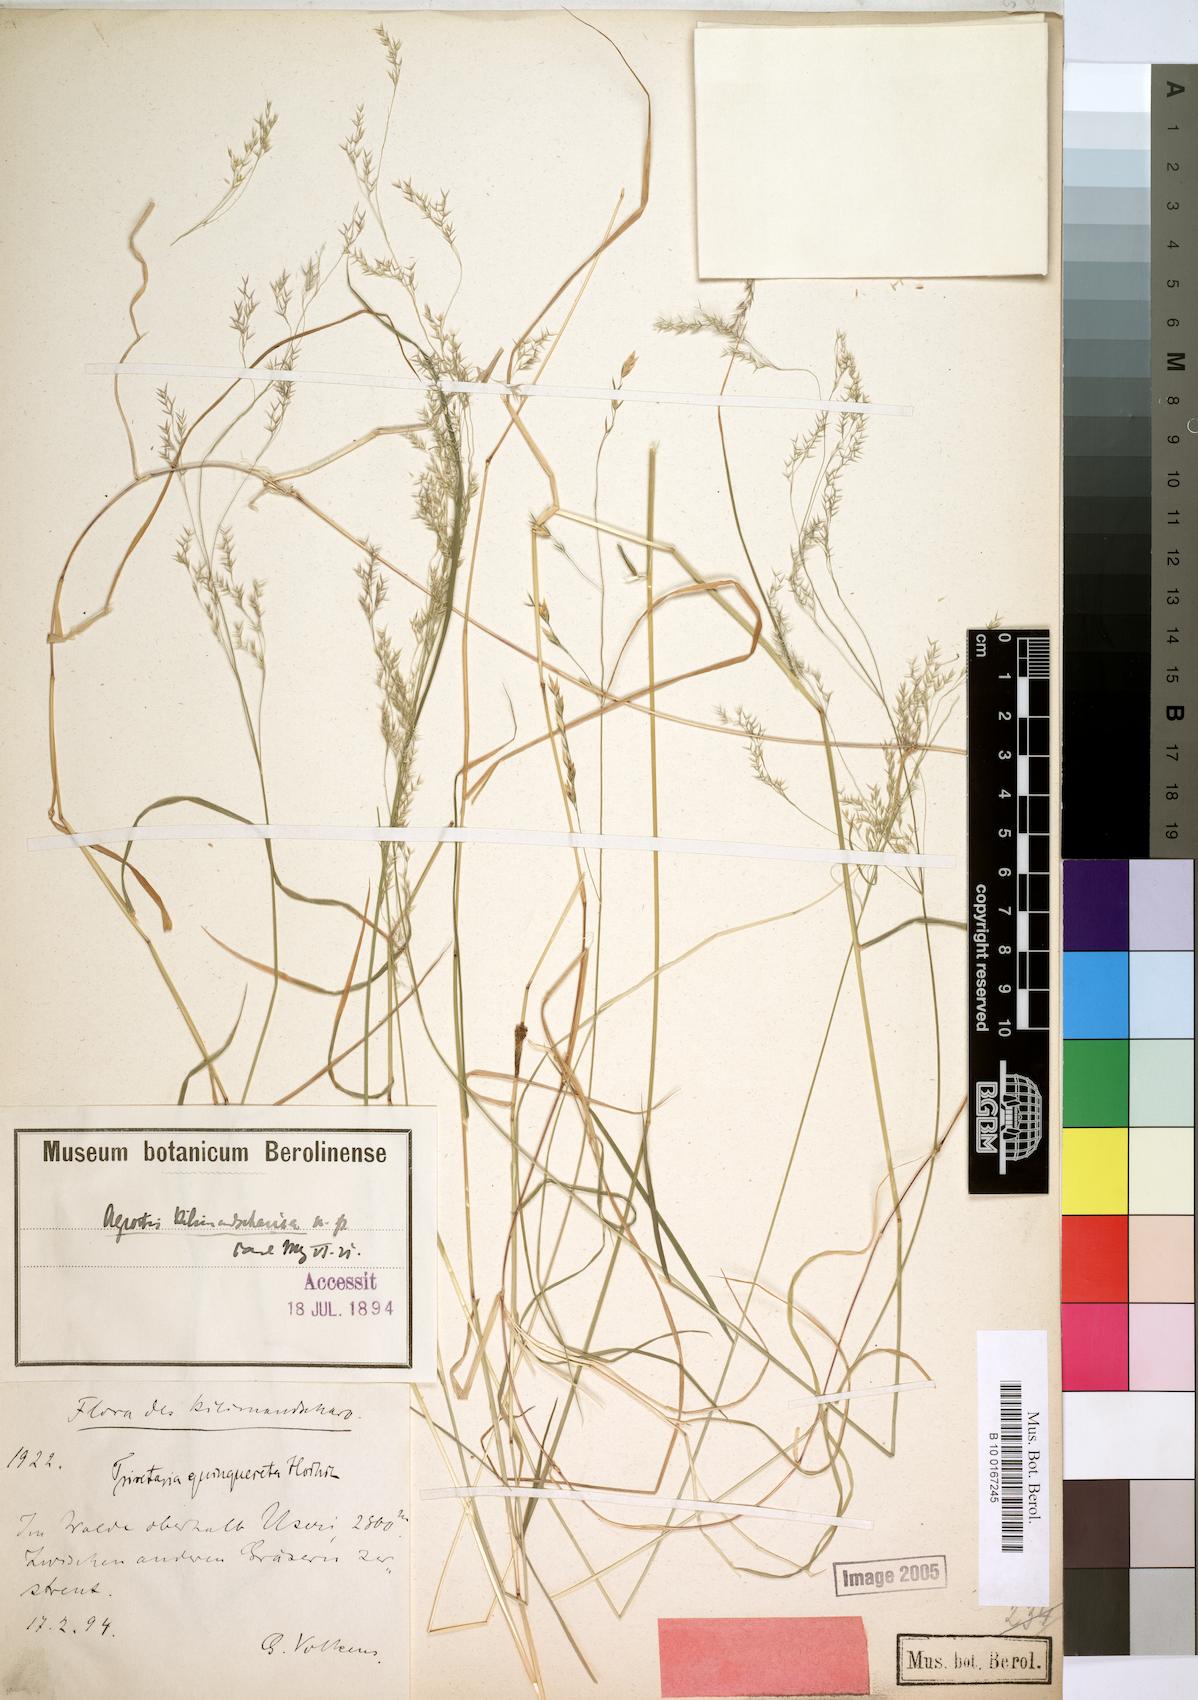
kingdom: Plantae
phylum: Tracheophyta
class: Liliopsida
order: Poales
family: Poaceae
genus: Agrostis
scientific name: Agrostis kilimandscharica
